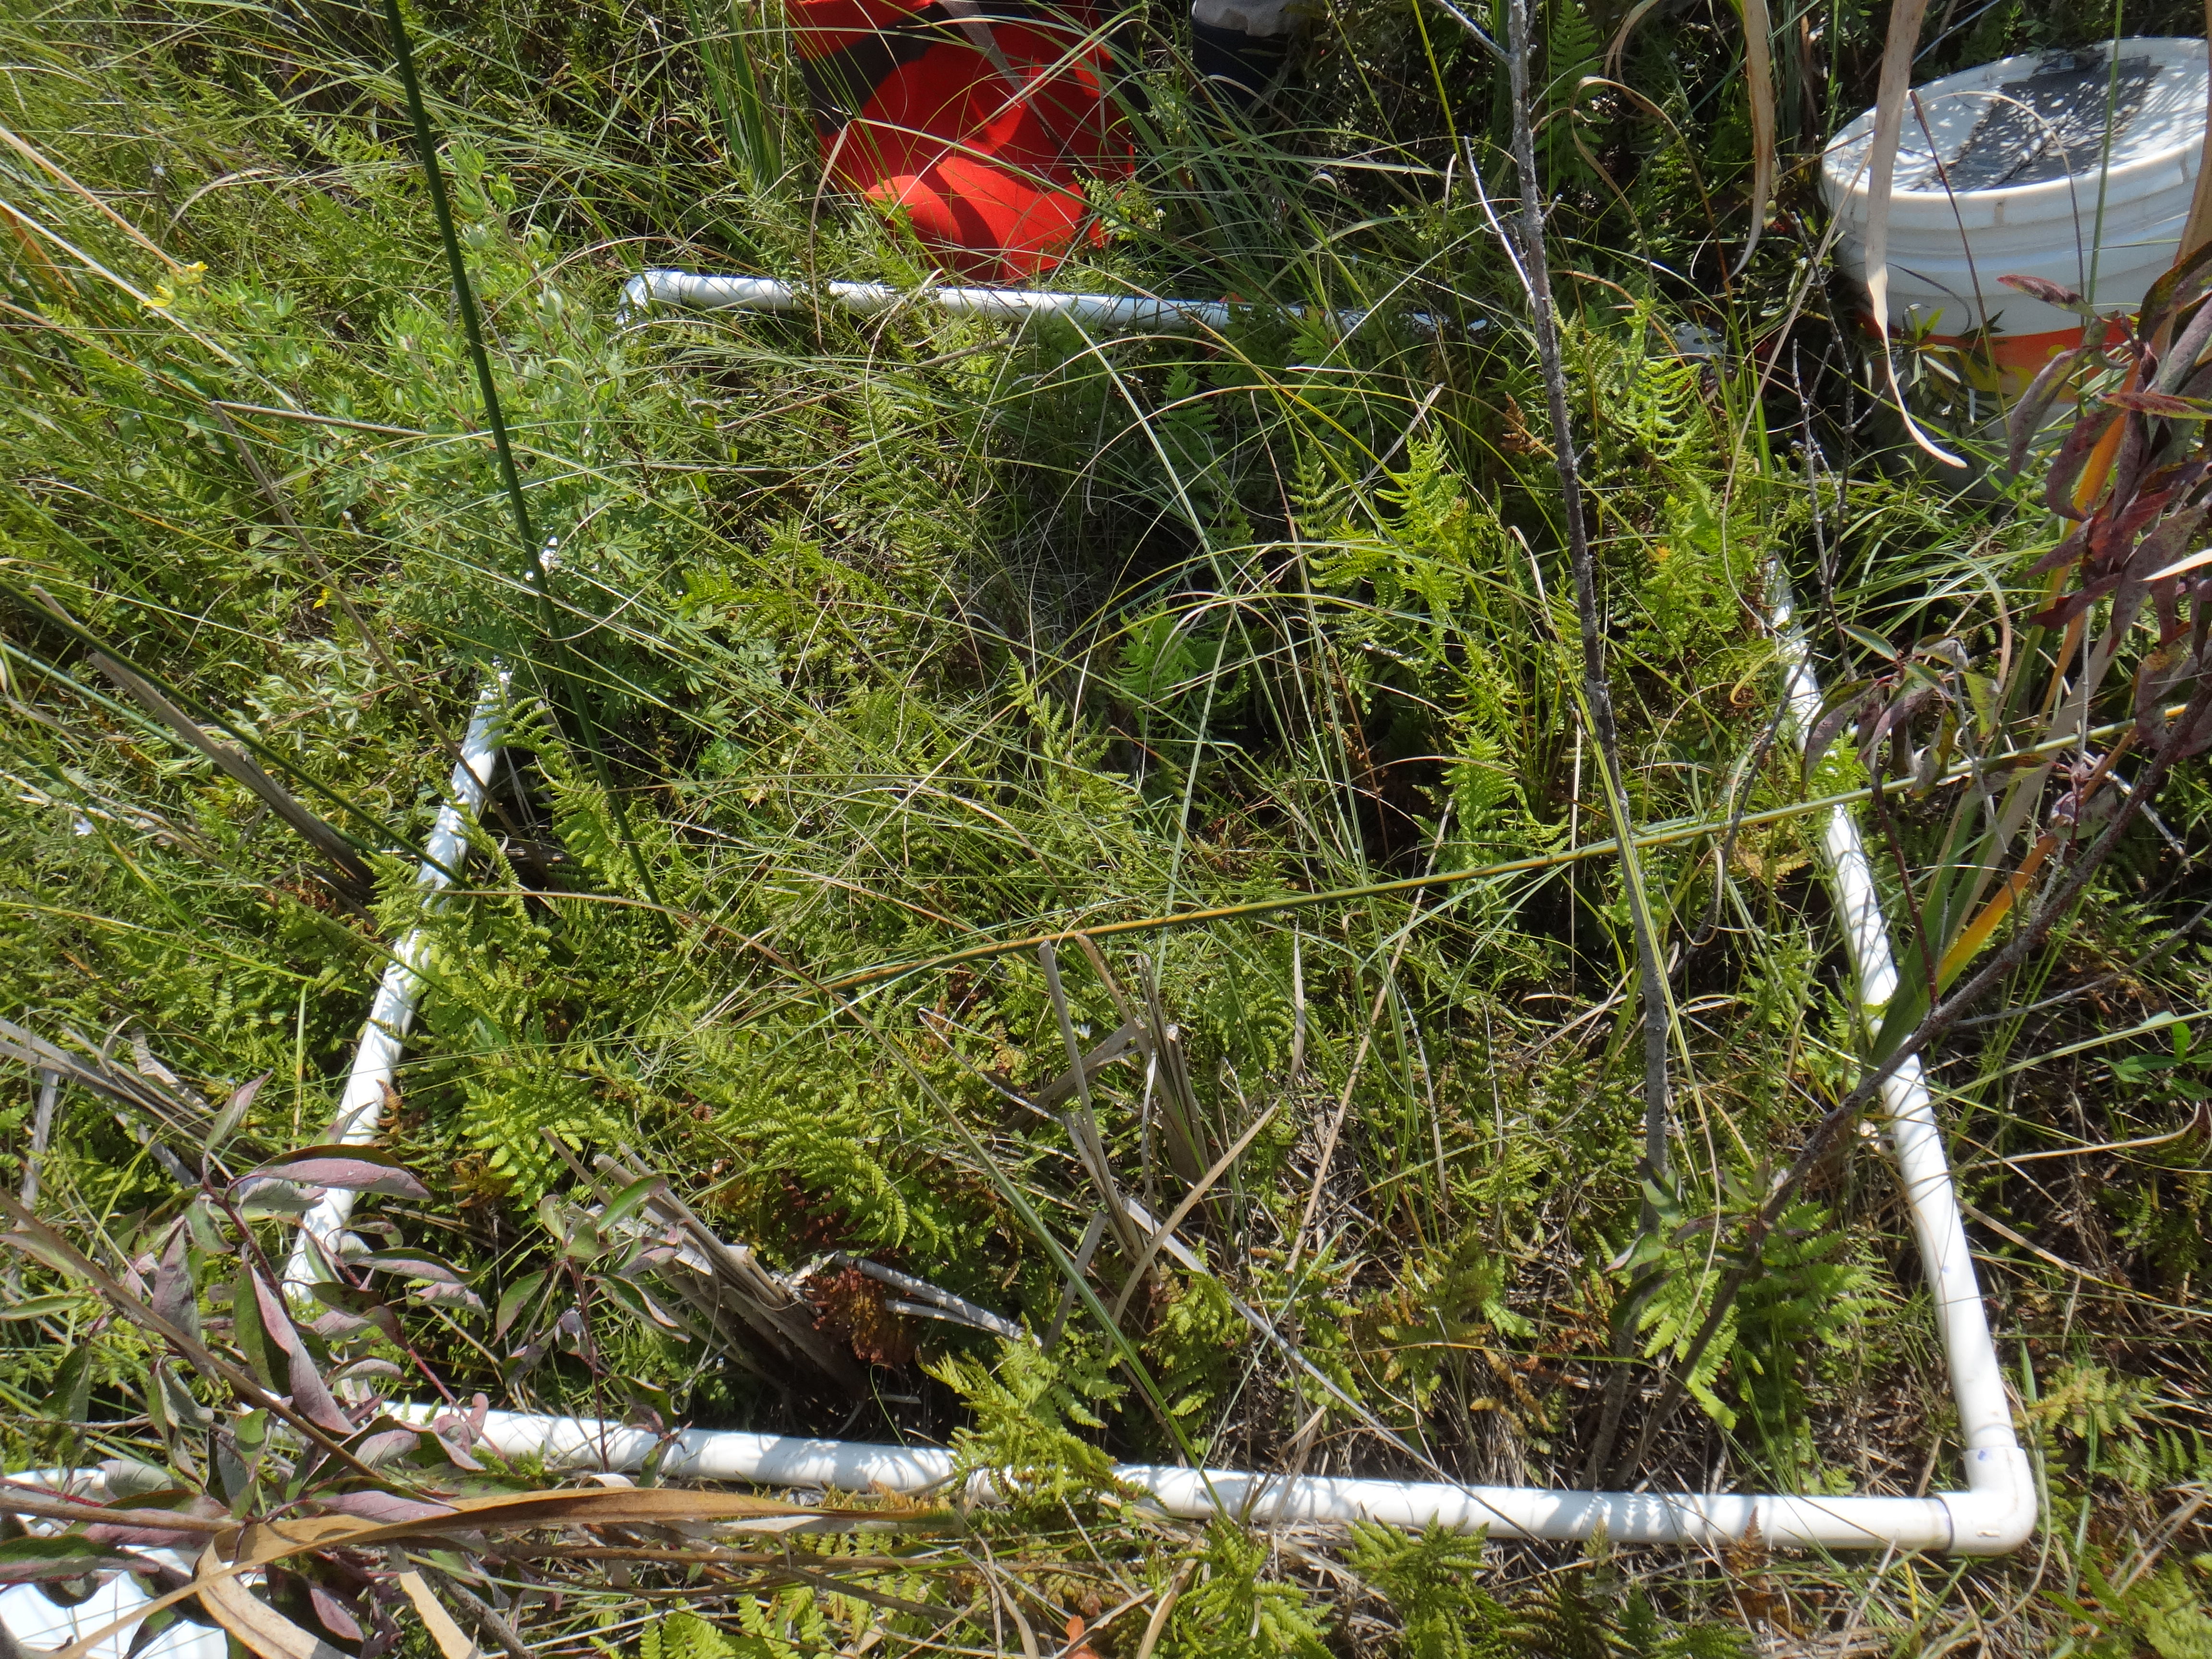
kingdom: Plantae
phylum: Tracheophyta
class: Magnoliopsida
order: Rosales
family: Rosaceae
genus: Dasiphora
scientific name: Dasiphora fruticosa
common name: Shrubby cinquefoil
